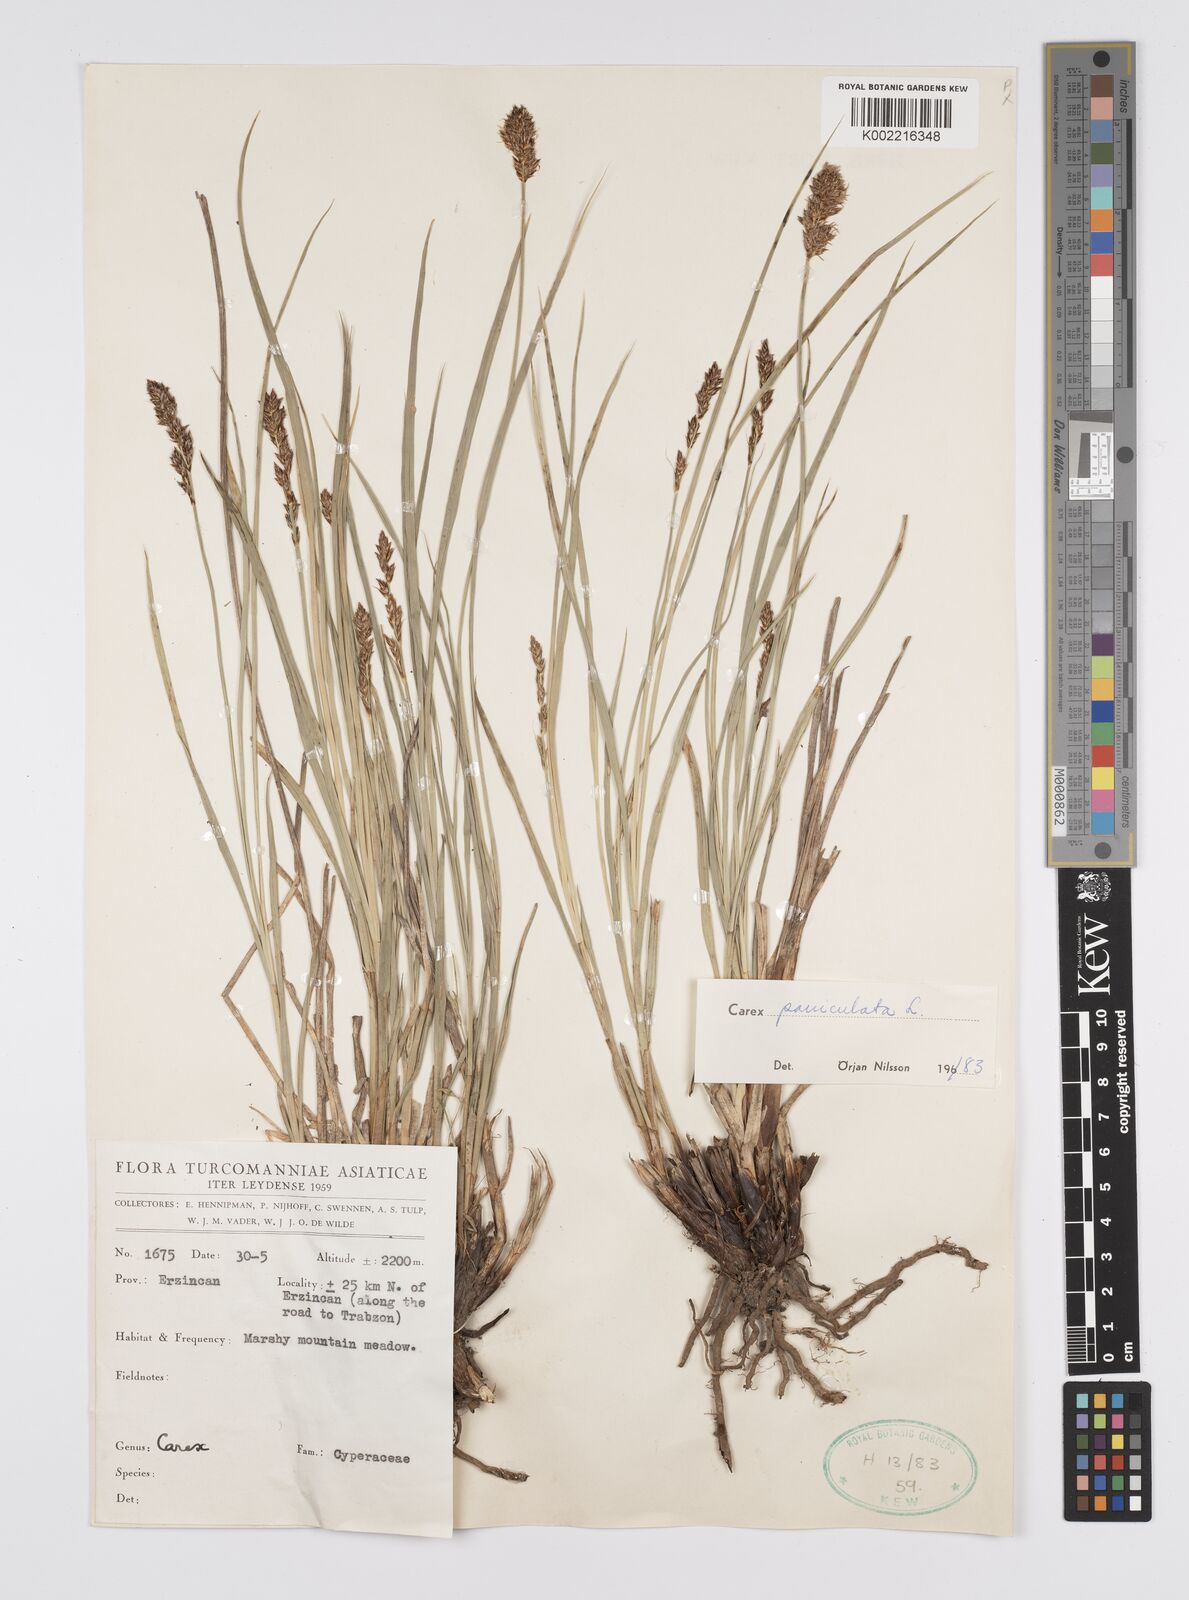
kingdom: Plantae
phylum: Tracheophyta
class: Liliopsida
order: Poales
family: Cyperaceae
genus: Carex
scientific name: Carex paniculata
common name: Greater tussock-sedge
